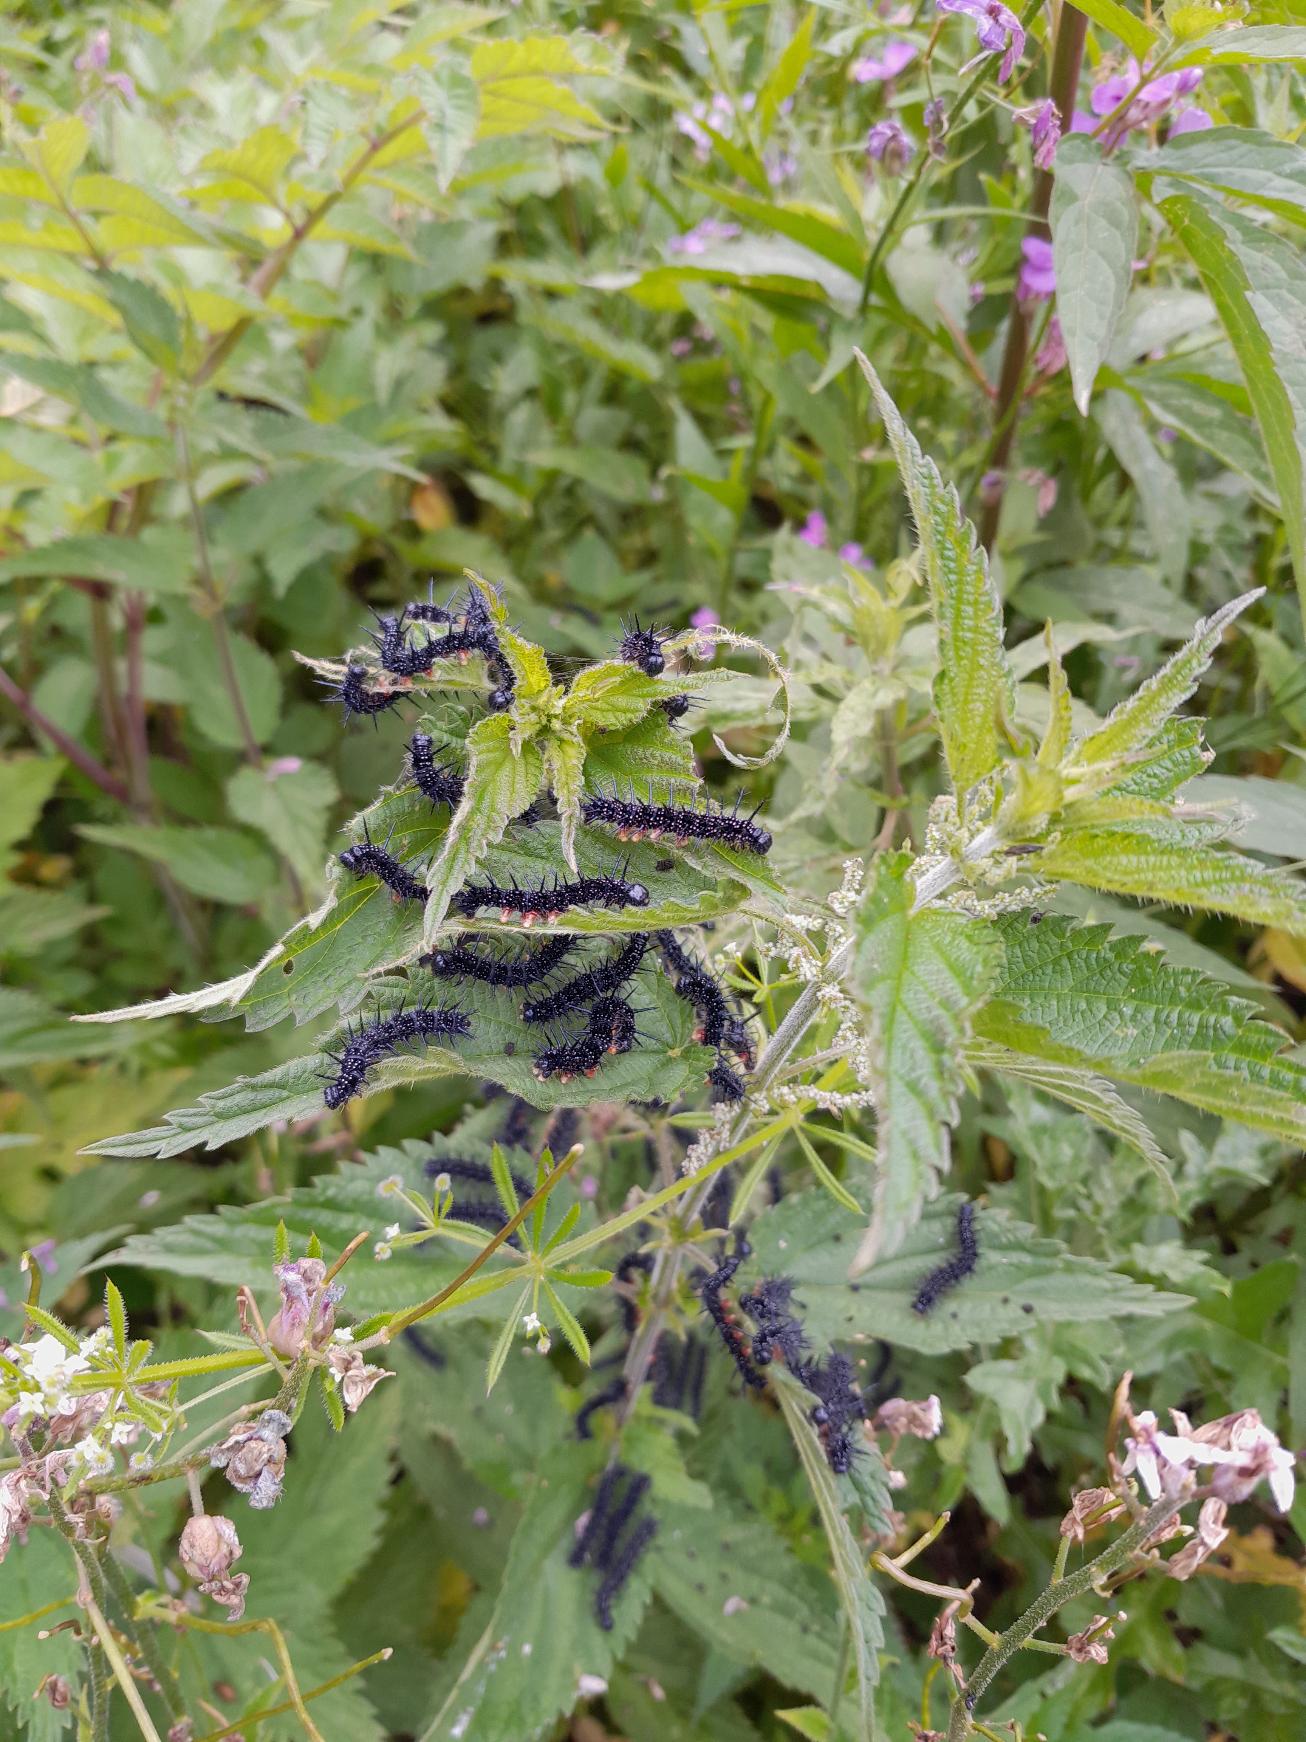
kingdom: Animalia
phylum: Arthropoda
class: Insecta
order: Lepidoptera
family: Nymphalidae
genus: Aglais
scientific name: Aglais io
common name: Dagpåfugleøje
